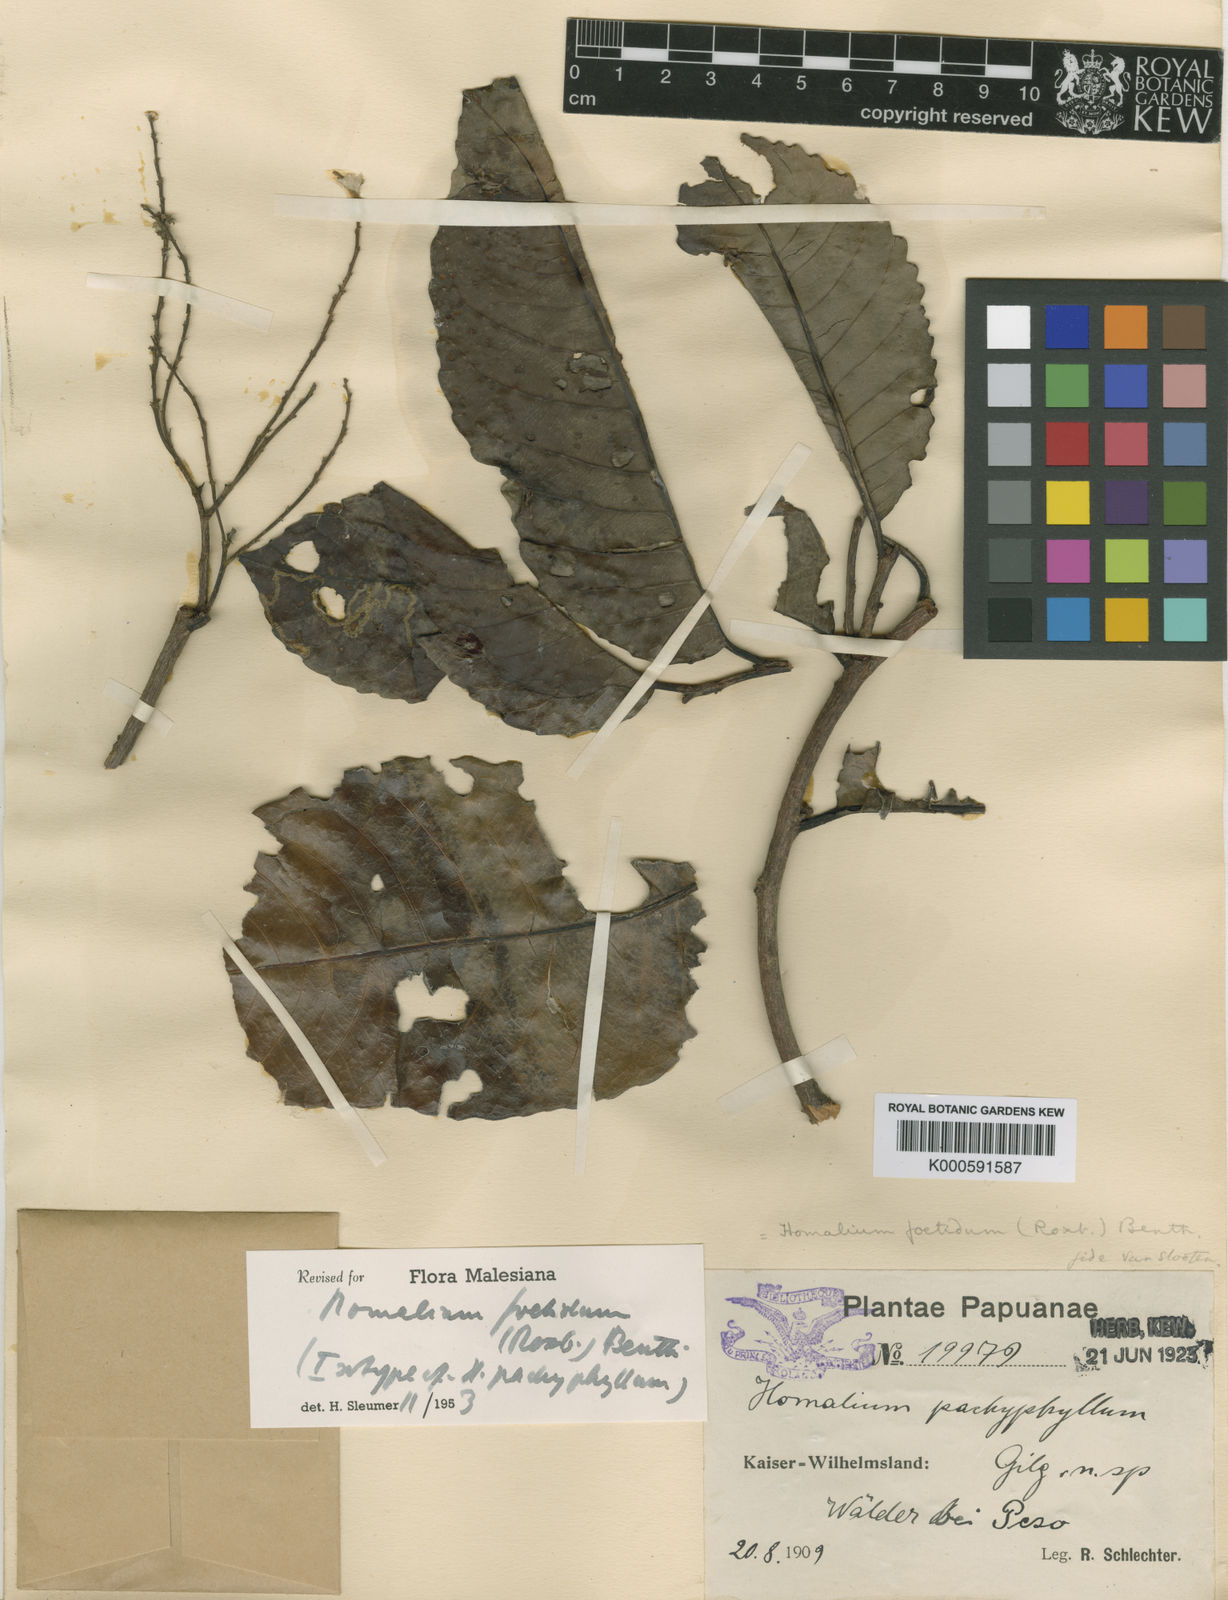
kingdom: Plantae
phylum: Tracheophyta
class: Magnoliopsida
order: Malpighiales
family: Salicaceae
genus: Homalium
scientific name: Homalium foetidum
